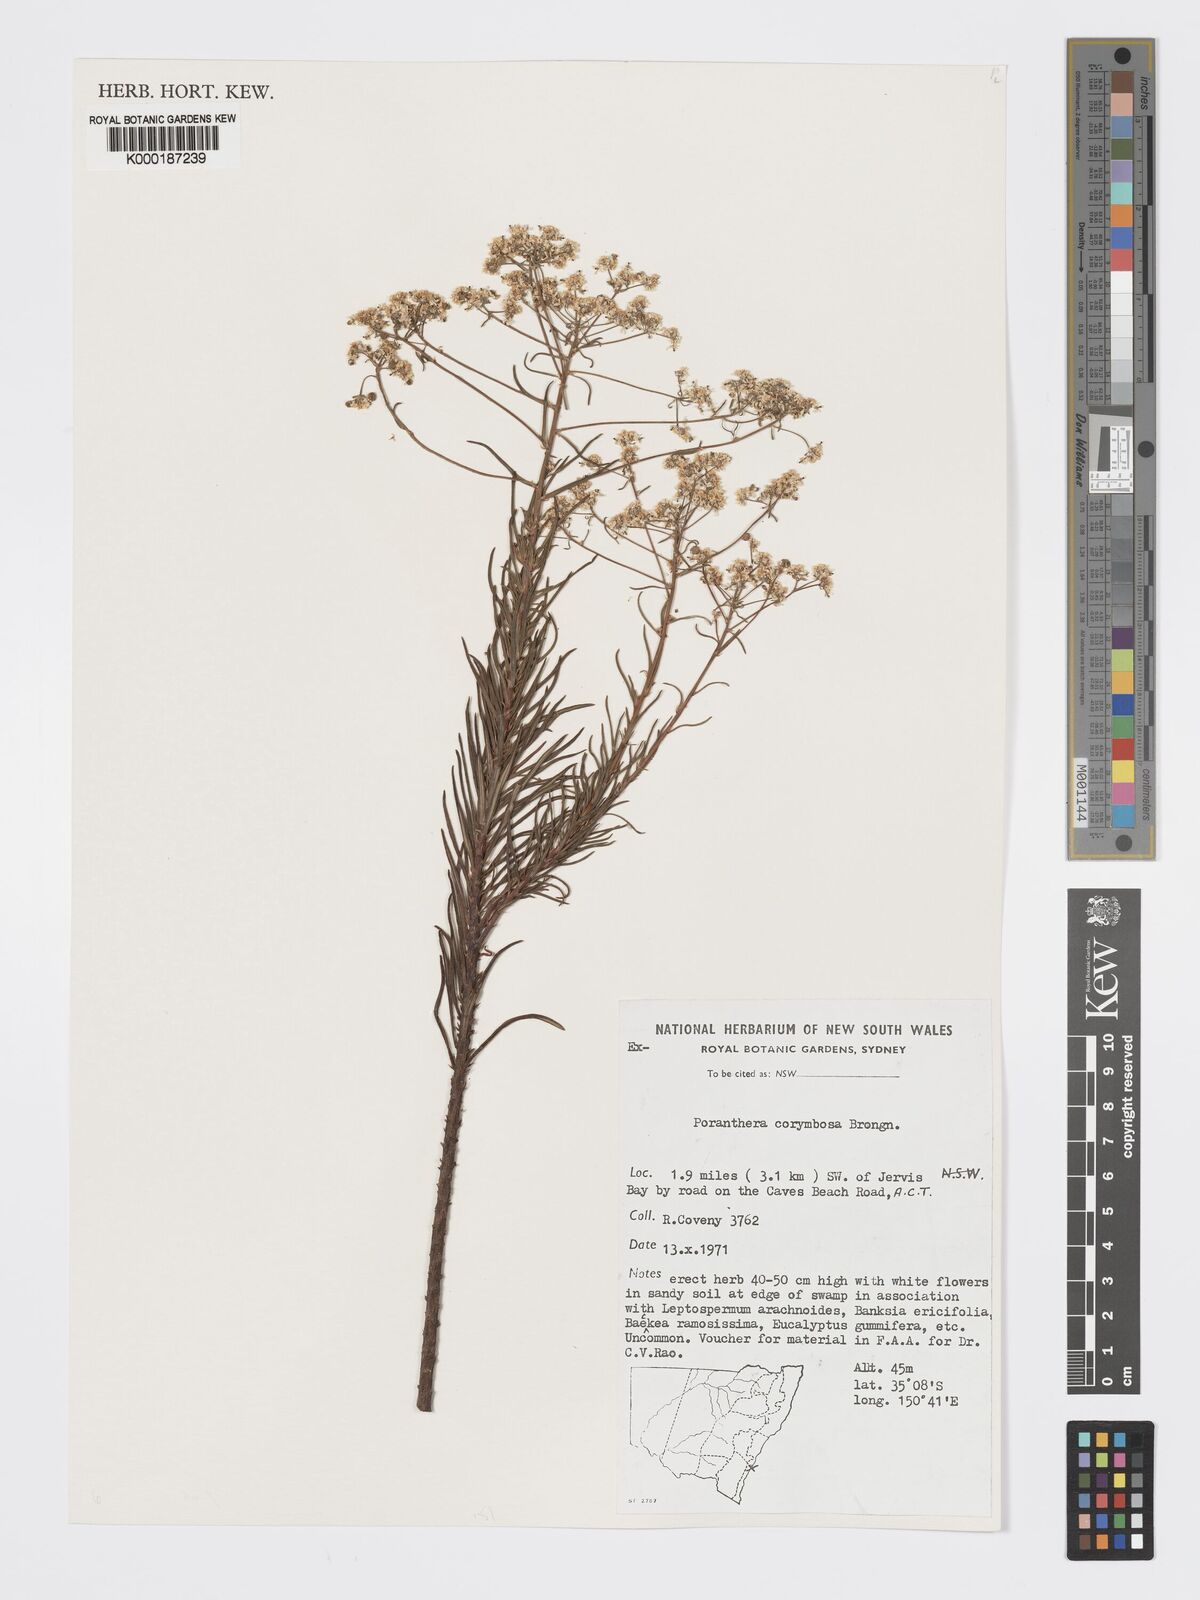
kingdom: Plantae
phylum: Tracheophyta
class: Magnoliopsida
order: Malpighiales
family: Phyllanthaceae
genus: Poranthera
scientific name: Poranthera corymbosa
